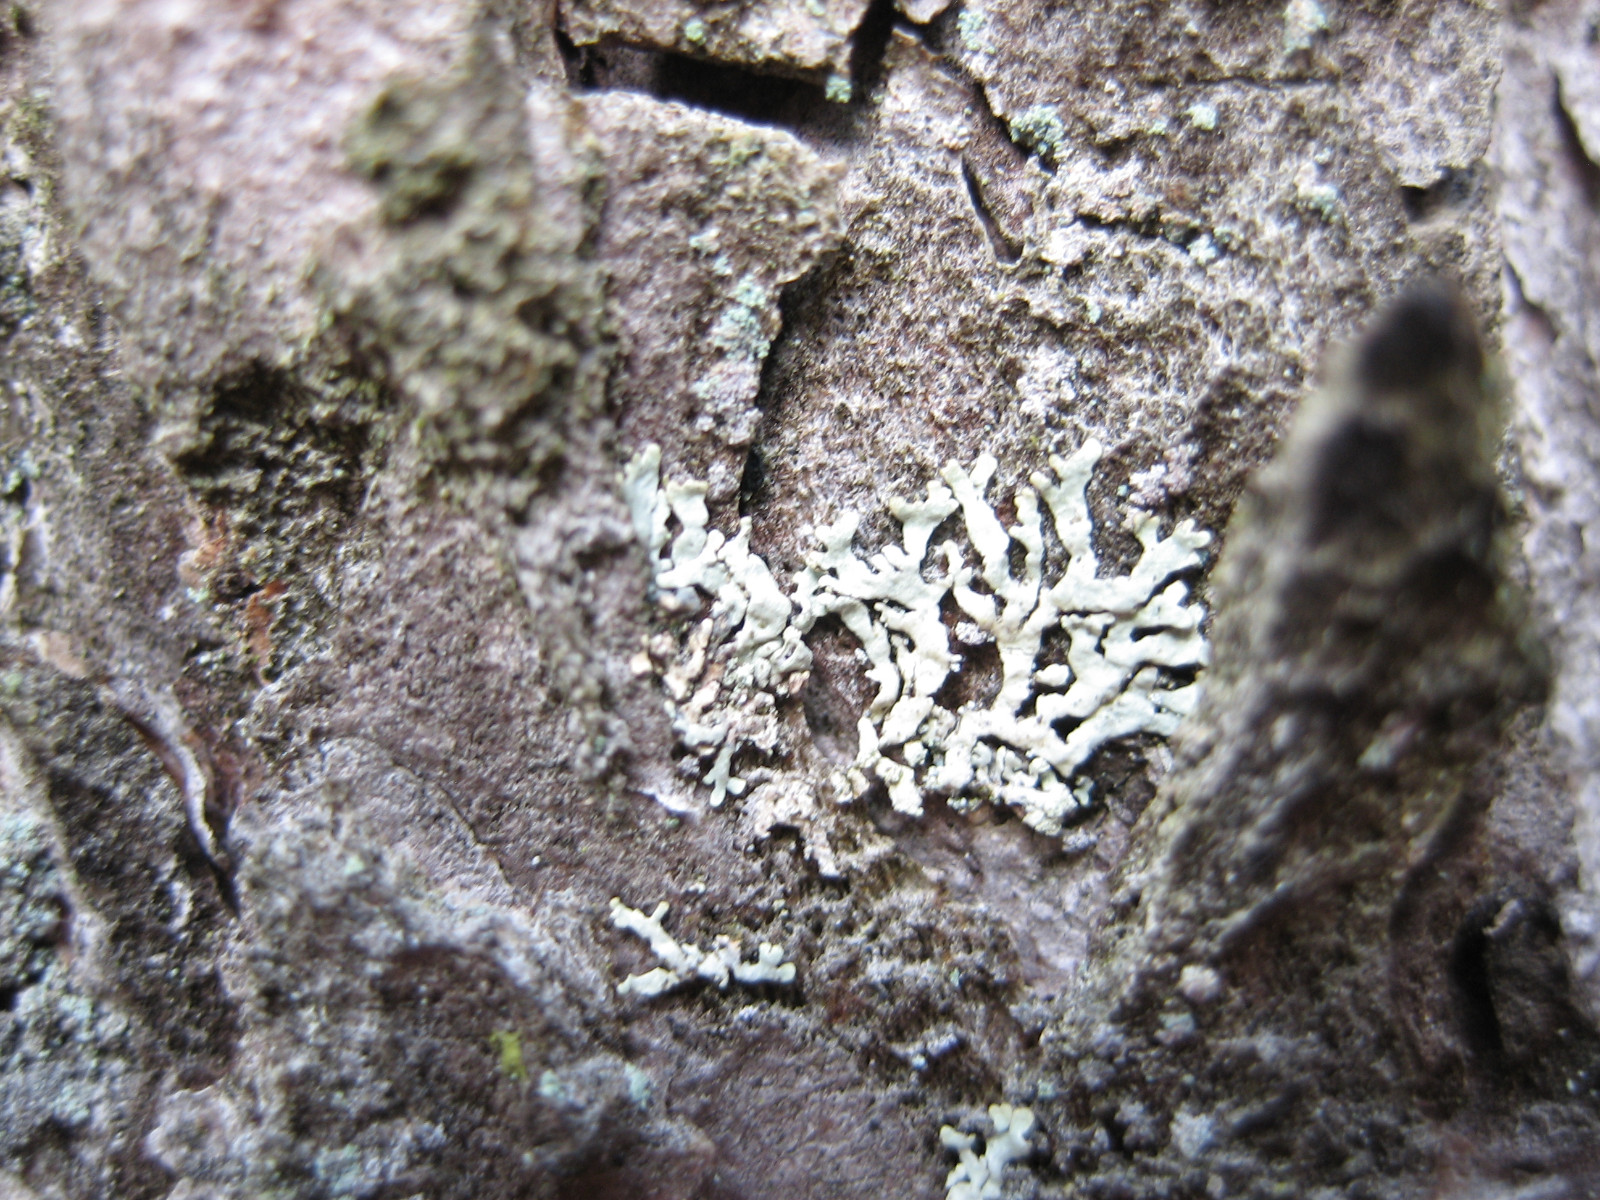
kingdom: Fungi
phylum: Ascomycota
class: Lecanoromycetes
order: Lecanorales
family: Parmeliaceae
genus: Parmeliopsis
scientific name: Parmeliopsis ambigua
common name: gul stolpelav
